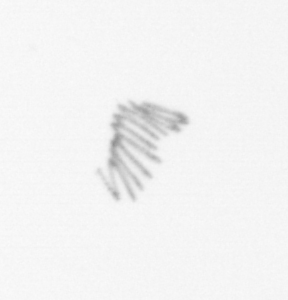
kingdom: Chromista
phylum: Ochrophyta
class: Bacillariophyceae
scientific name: Bacillariophyceae
